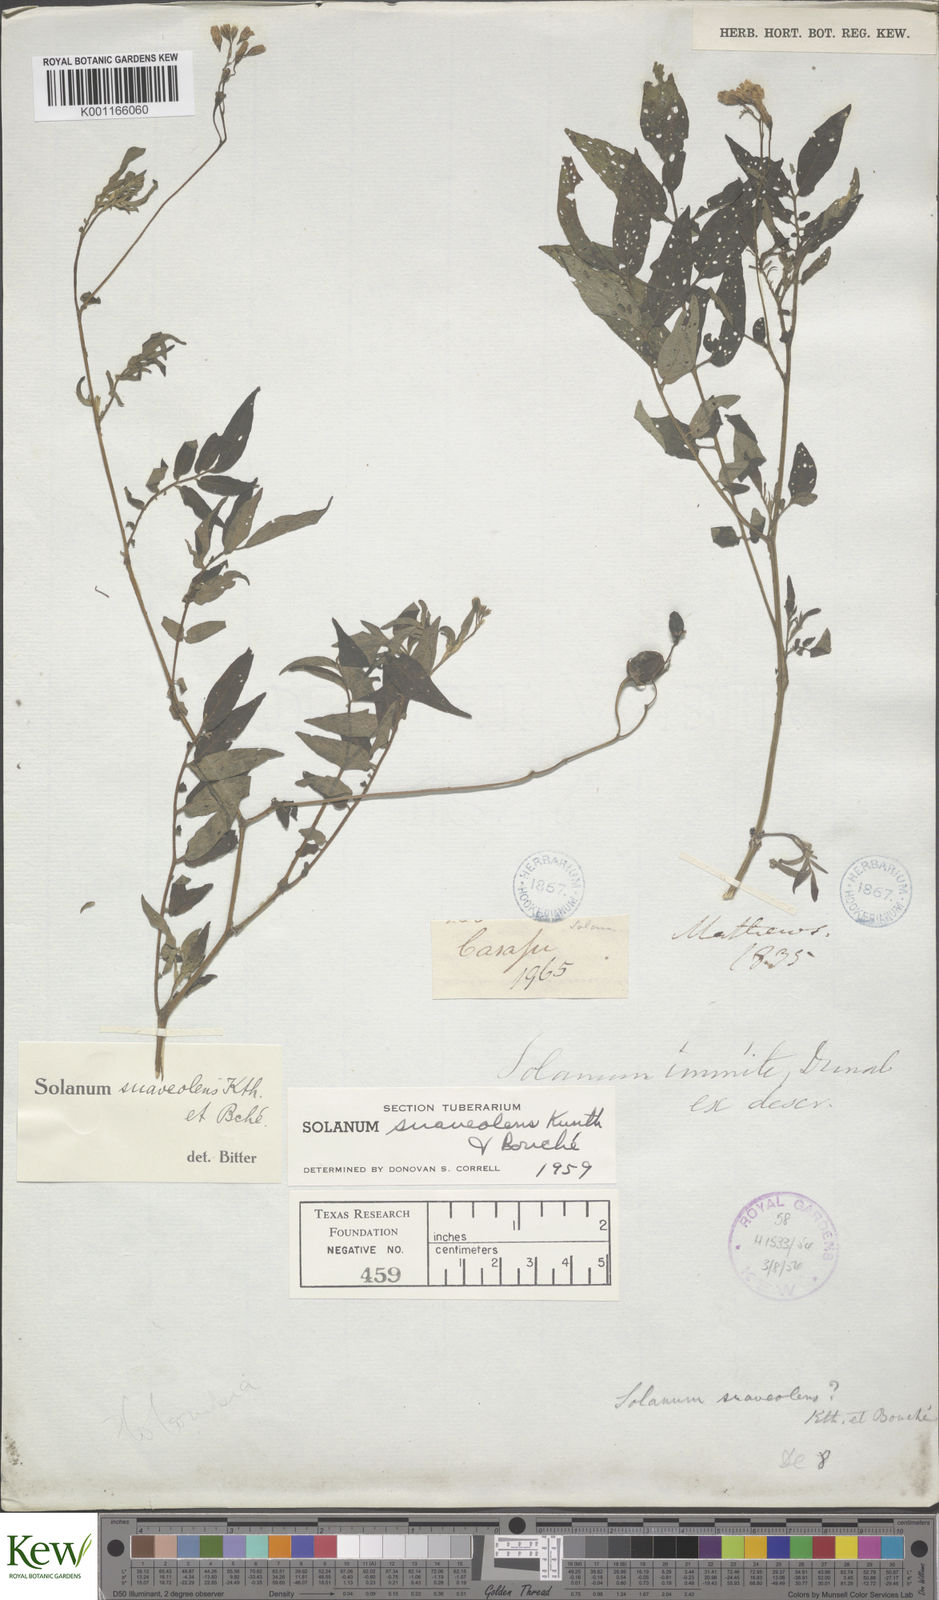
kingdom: Plantae
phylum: Tracheophyta
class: Magnoliopsida
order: Solanales
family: Solanaceae
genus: Solanum
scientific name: Solanum suaveolens
